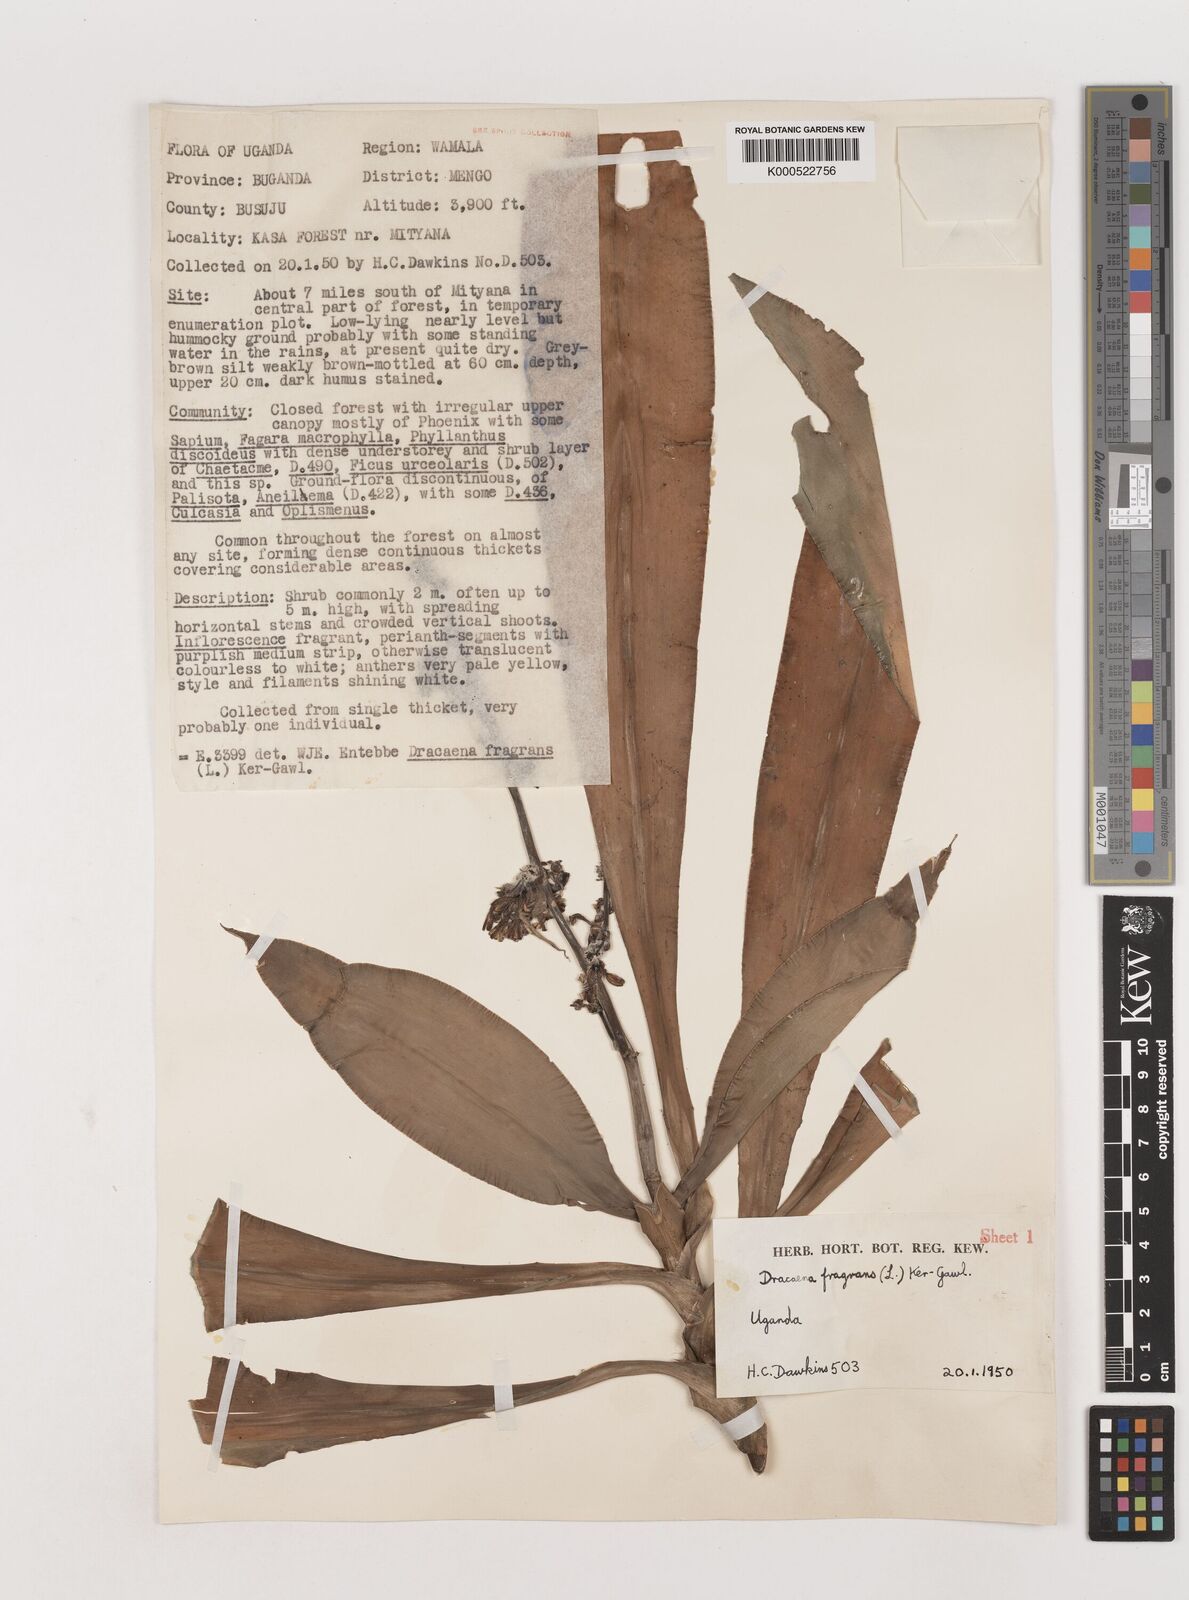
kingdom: Plantae
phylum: Tracheophyta
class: Liliopsida
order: Asparagales
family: Asparagaceae
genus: Dracaena
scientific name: Dracaena fragrans
